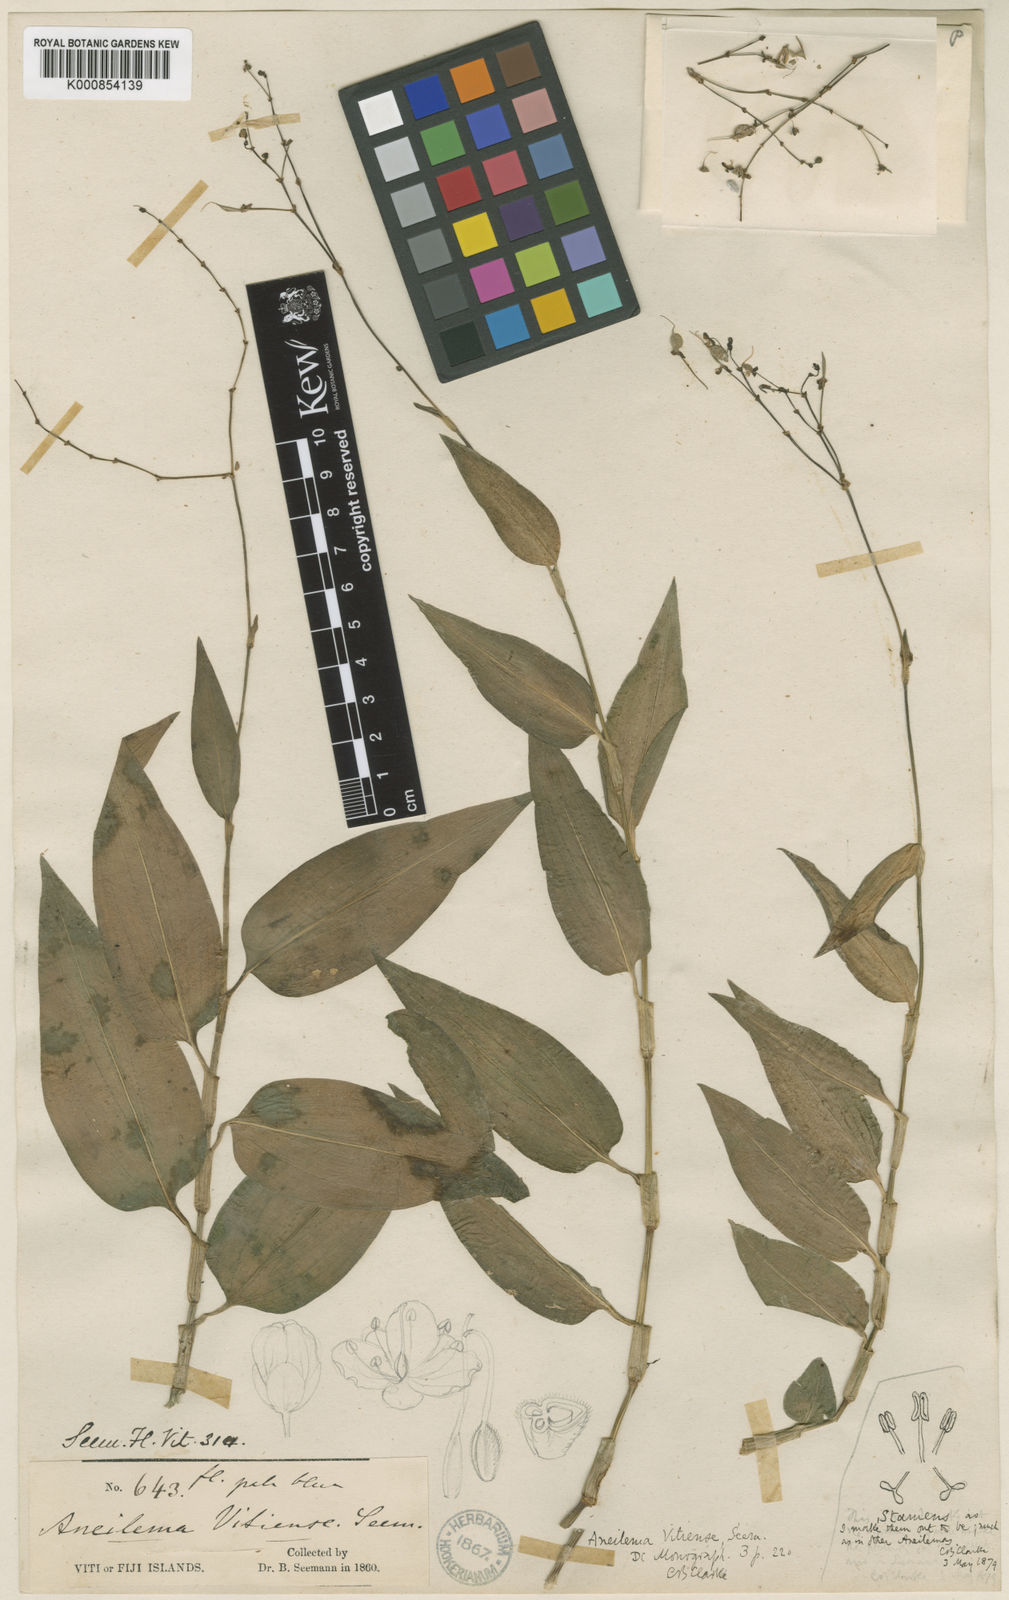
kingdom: Plantae
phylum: Tracheophyta
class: Liliopsida
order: Commelinales
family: Commelinaceae
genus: Rhopalephora
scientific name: Rhopalephora vitiensis
